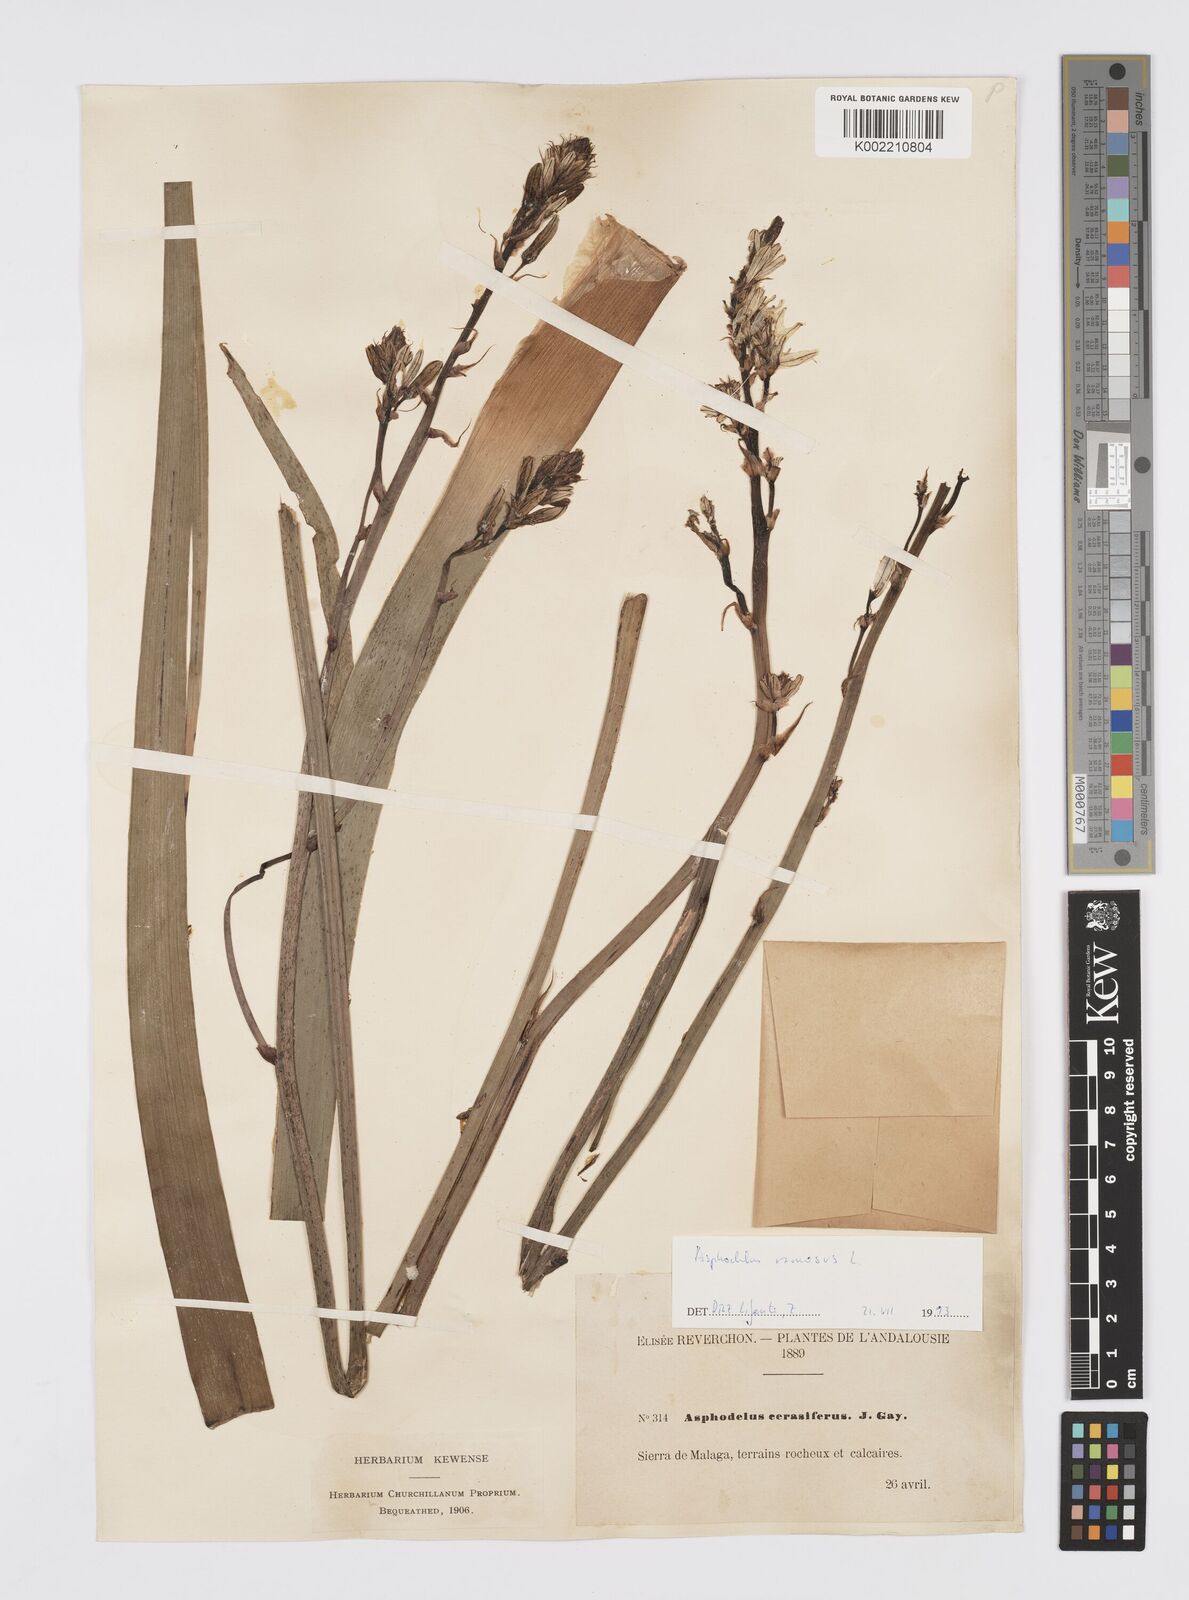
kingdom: Plantae
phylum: Tracheophyta
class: Liliopsida
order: Asparagales
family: Asphodelaceae
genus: Asphodelus
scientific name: Asphodelus cerasifer
